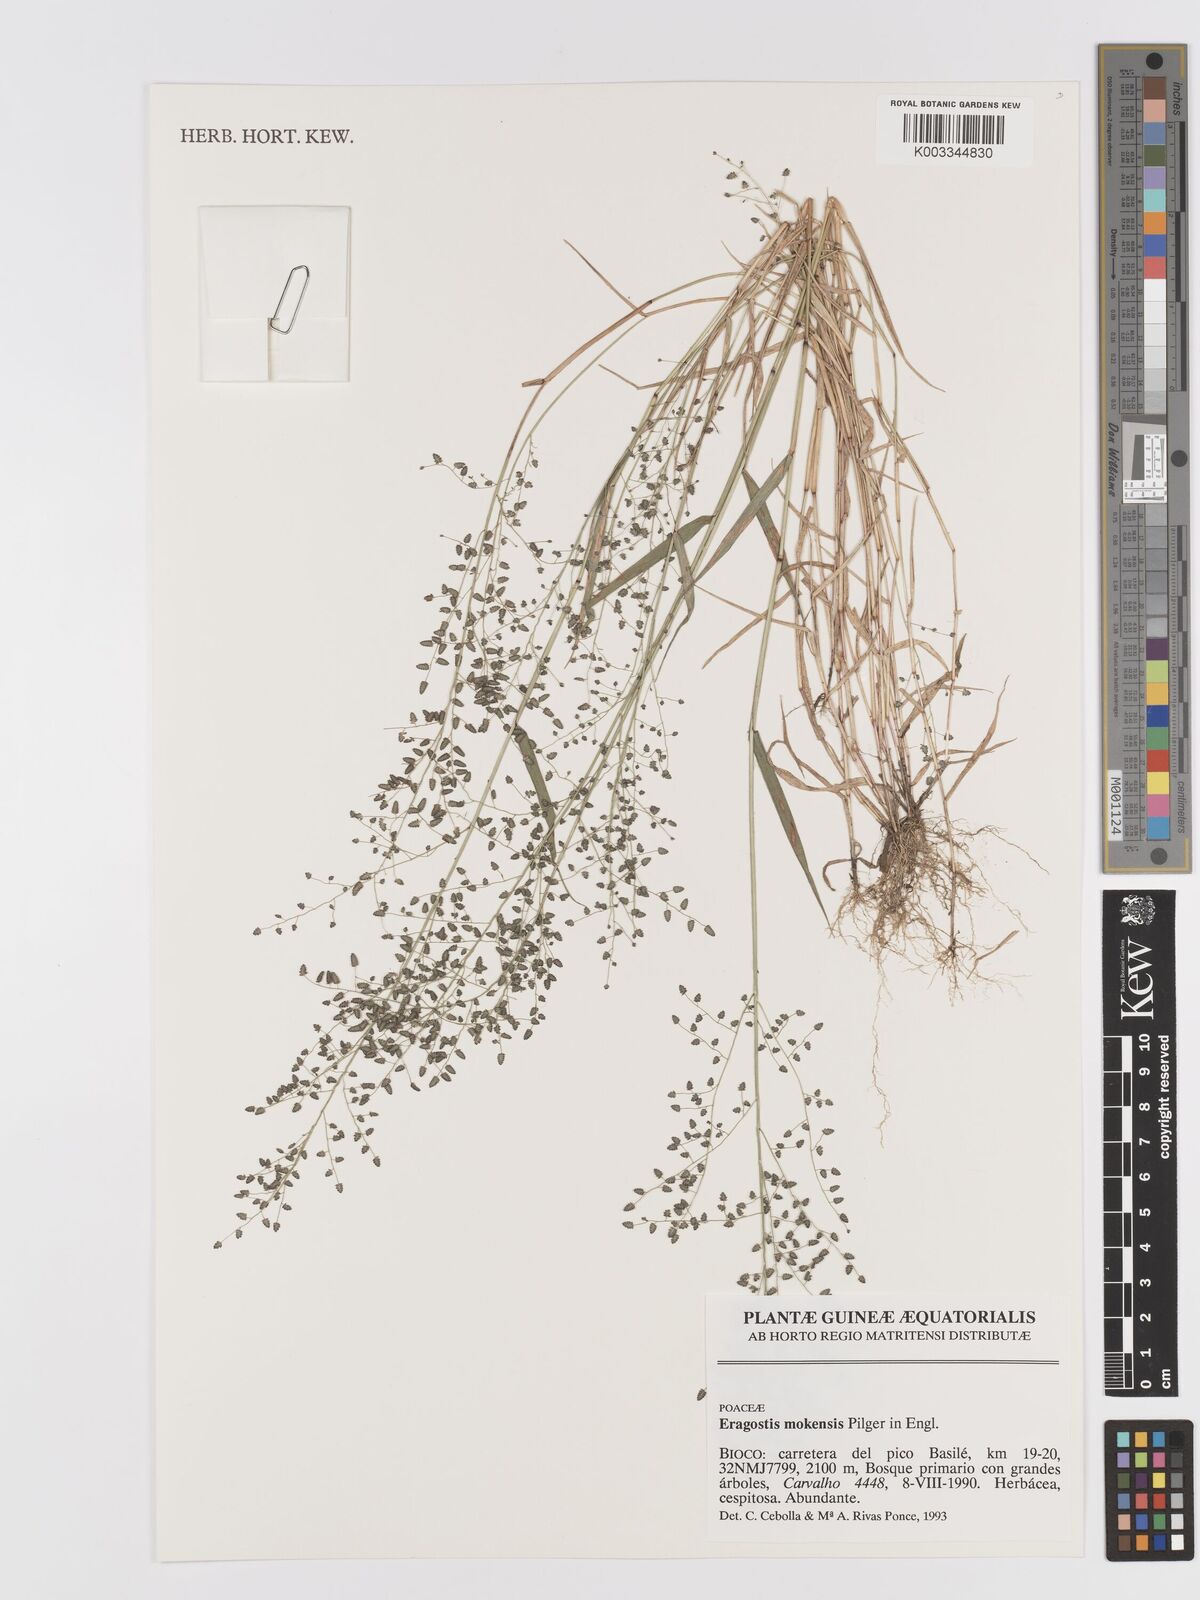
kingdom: Plantae
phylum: Tracheophyta
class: Liliopsida
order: Poales
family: Poaceae
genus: Eragrostis
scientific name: Eragrostis mokensis
